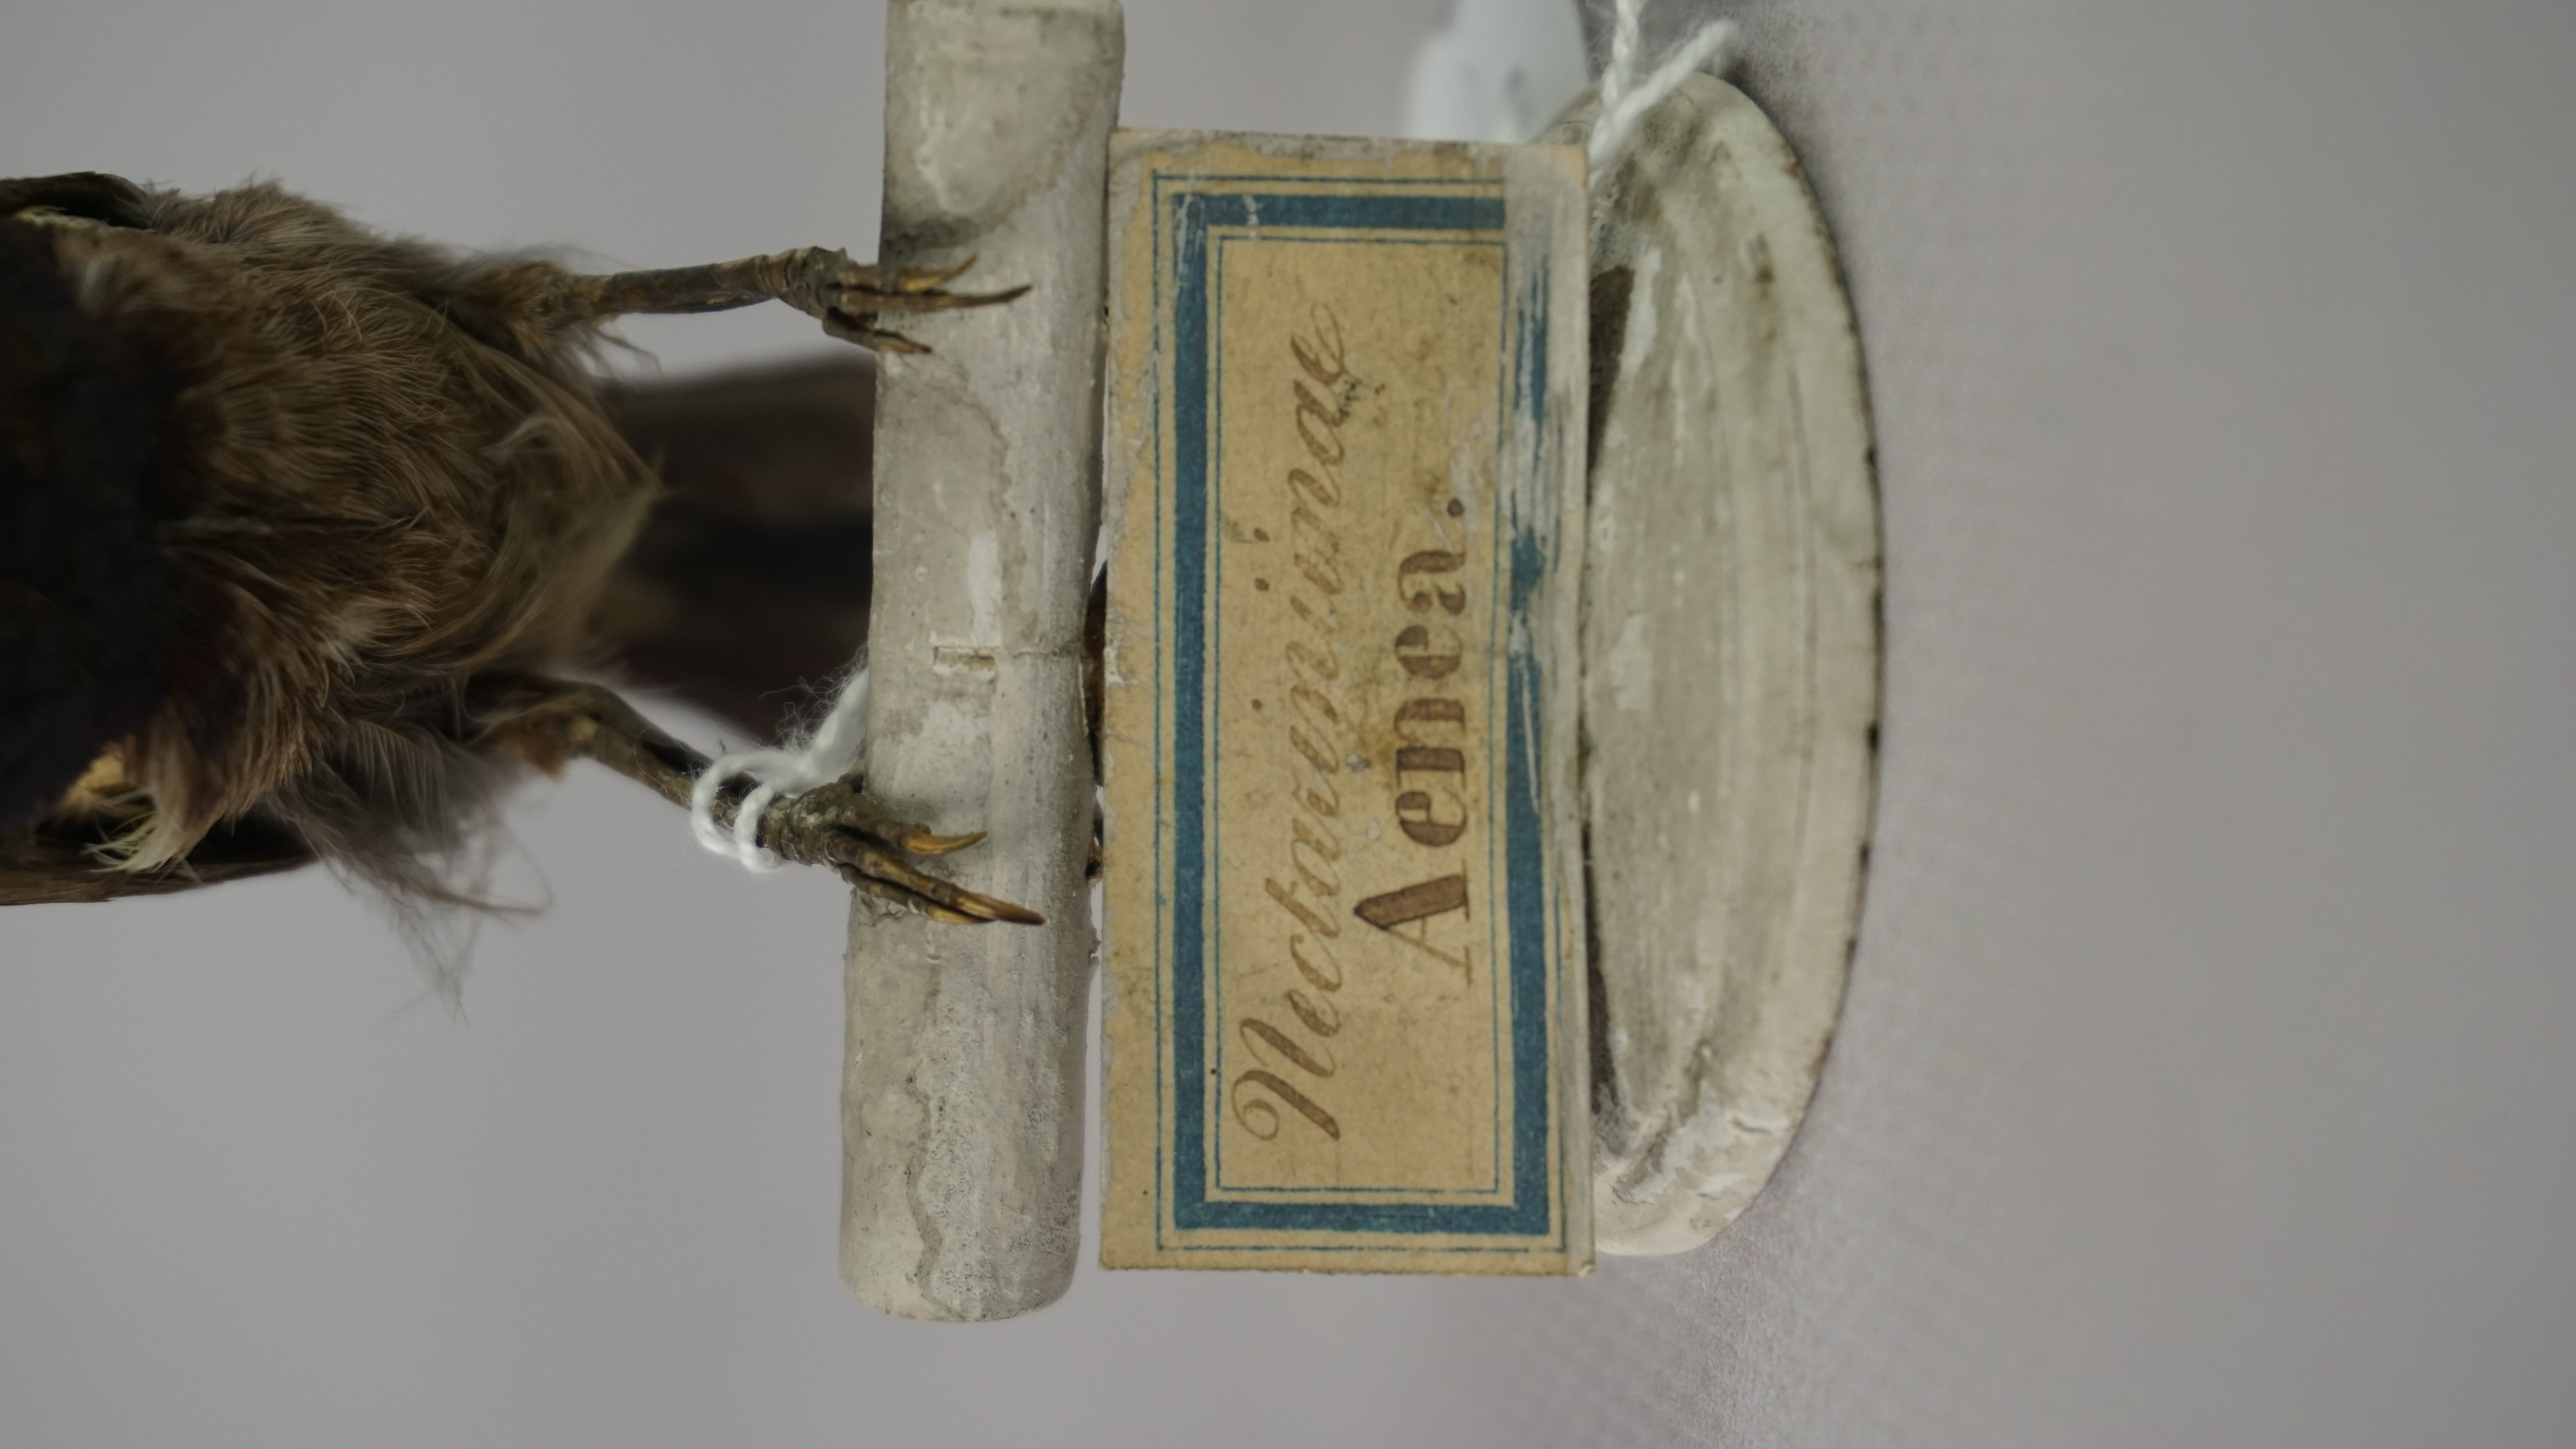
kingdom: Animalia
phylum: Chordata
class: Aves
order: Passeriformes
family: Nectariniidae
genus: Cinnyris
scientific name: Cinnyris venustus
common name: Variable sunbird
